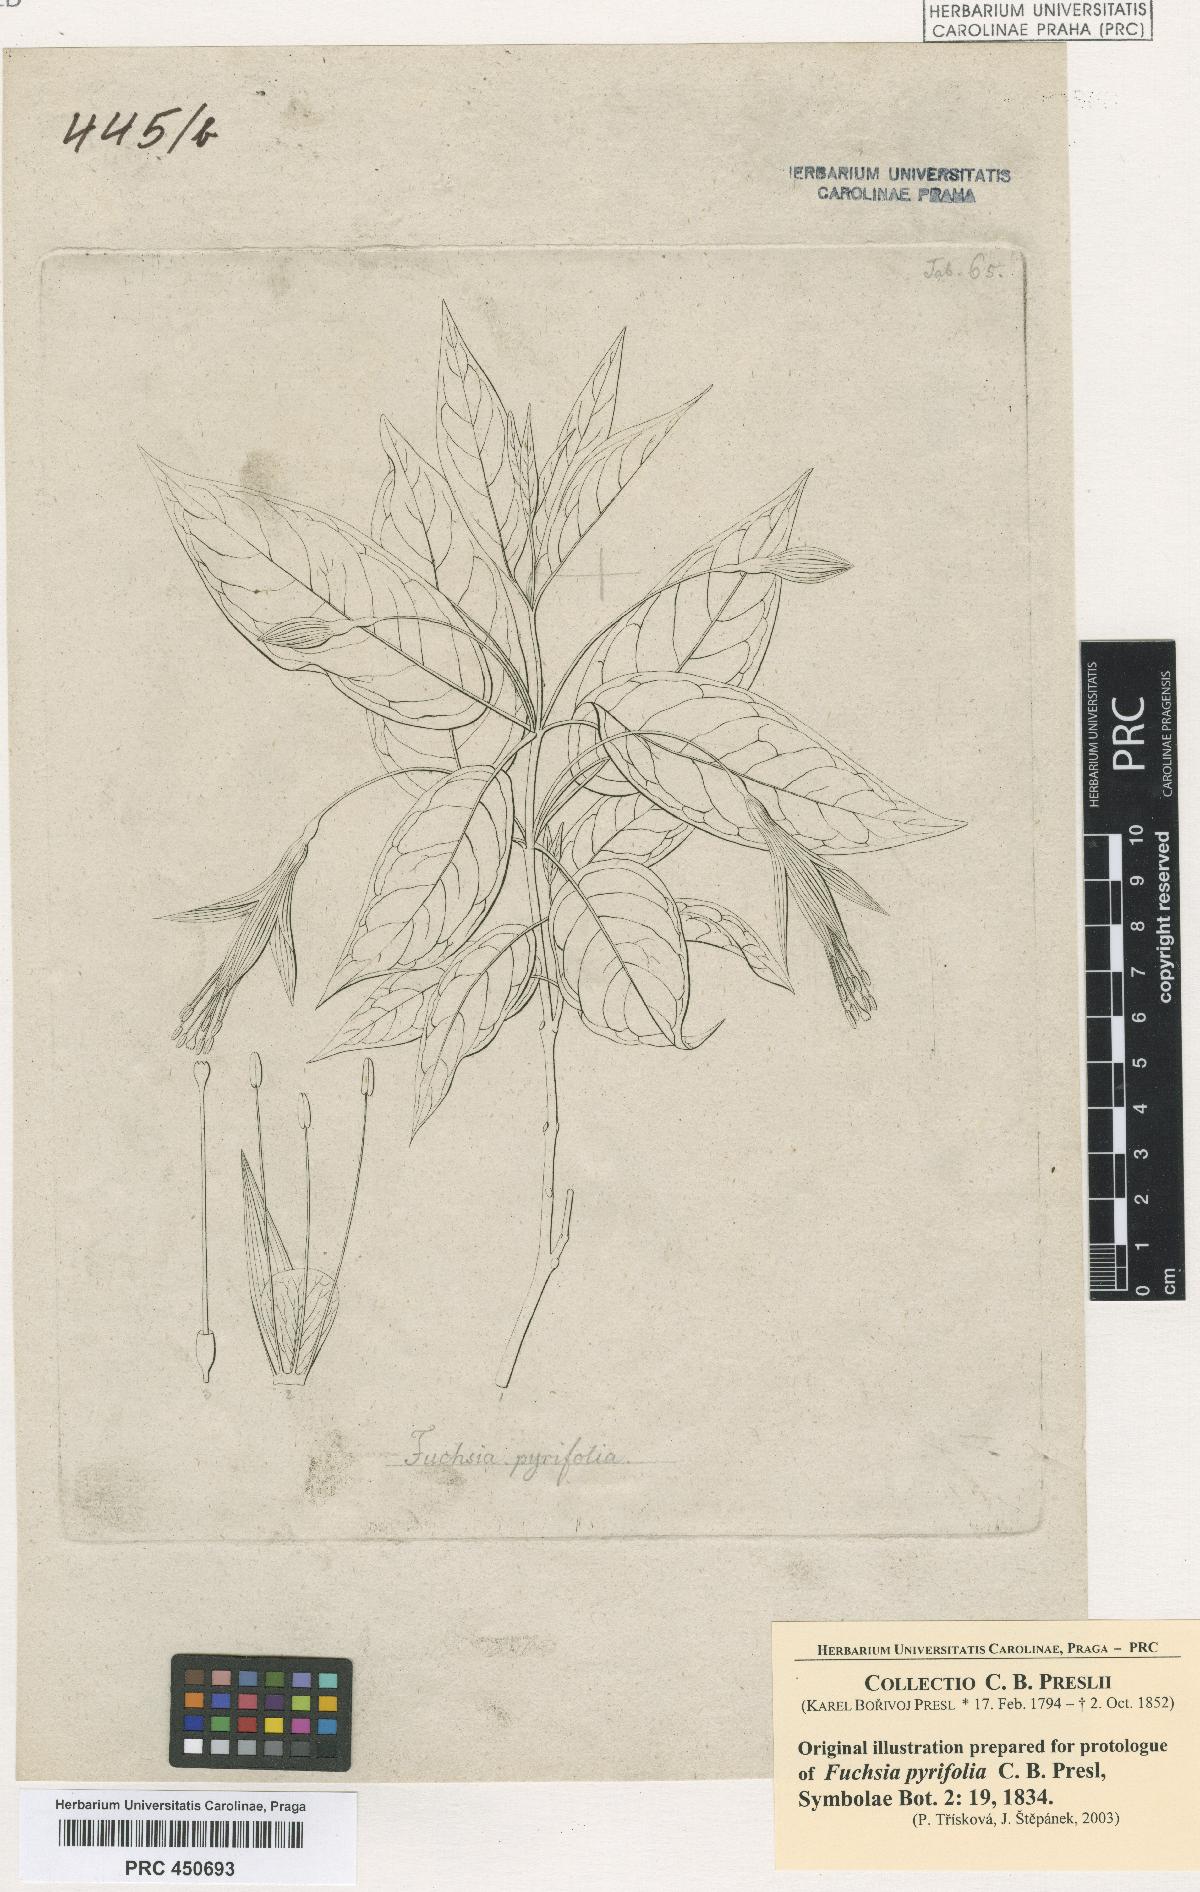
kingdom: Plantae
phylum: Tracheophyta
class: Magnoliopsida
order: Myrtales
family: Onagraceae
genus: Fuchsia
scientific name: Fuchsia regia
